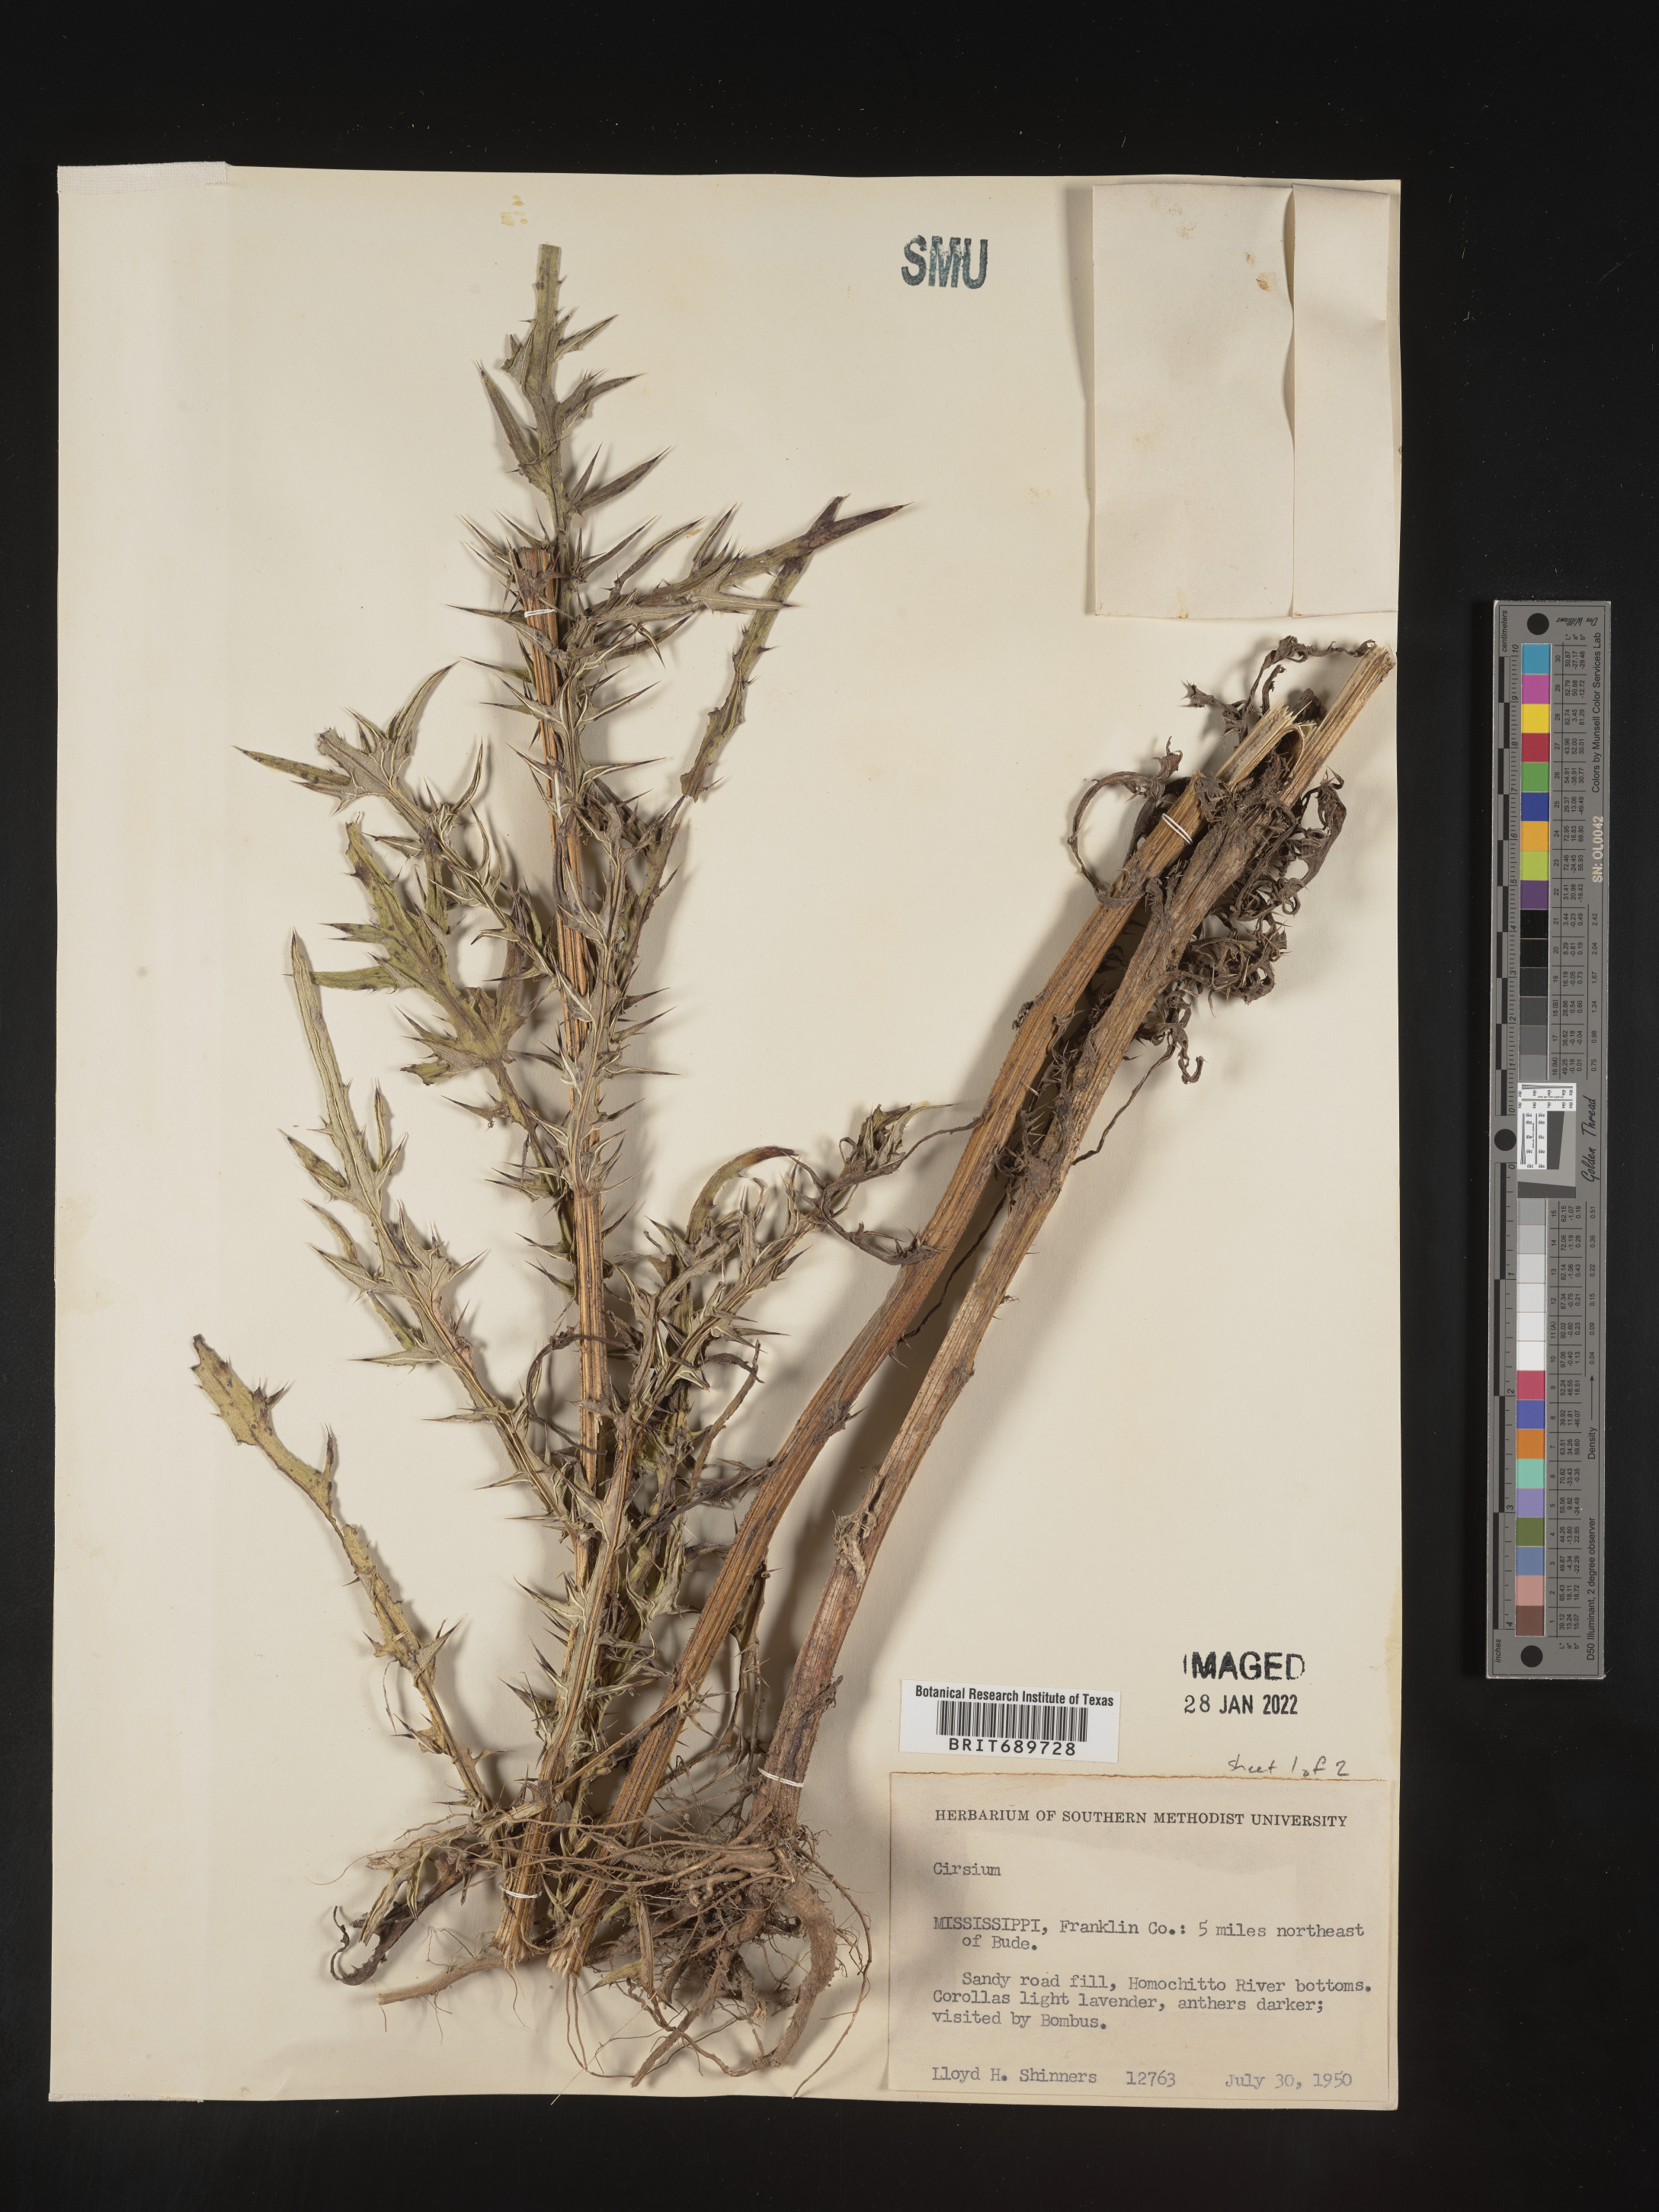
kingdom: Plantae
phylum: Tracheophyta
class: Magnoliopsida
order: Asterales
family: Asteraceae
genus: Cirsium
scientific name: Cirsium
